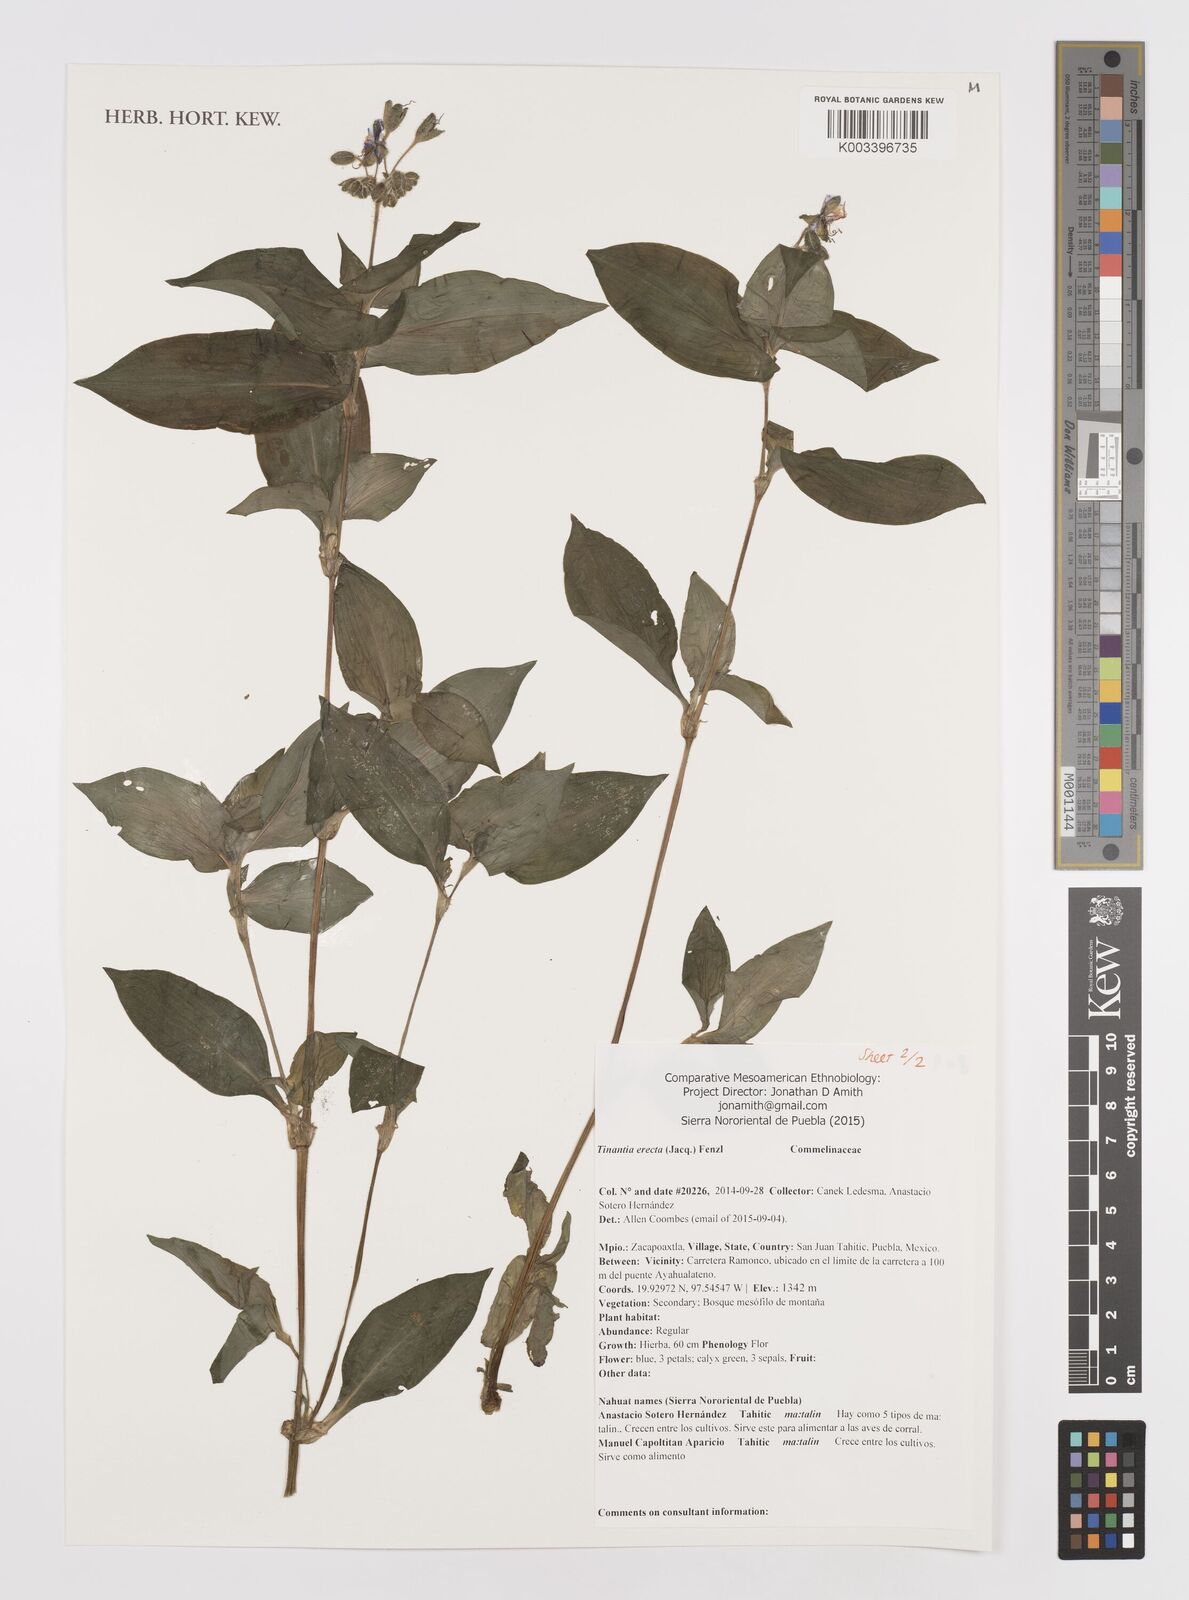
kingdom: Plantae
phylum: Tracheophyta
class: Liliopsida
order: Commelinales
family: Commelinaceae
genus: Tinantia
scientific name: Tinantia erecta
